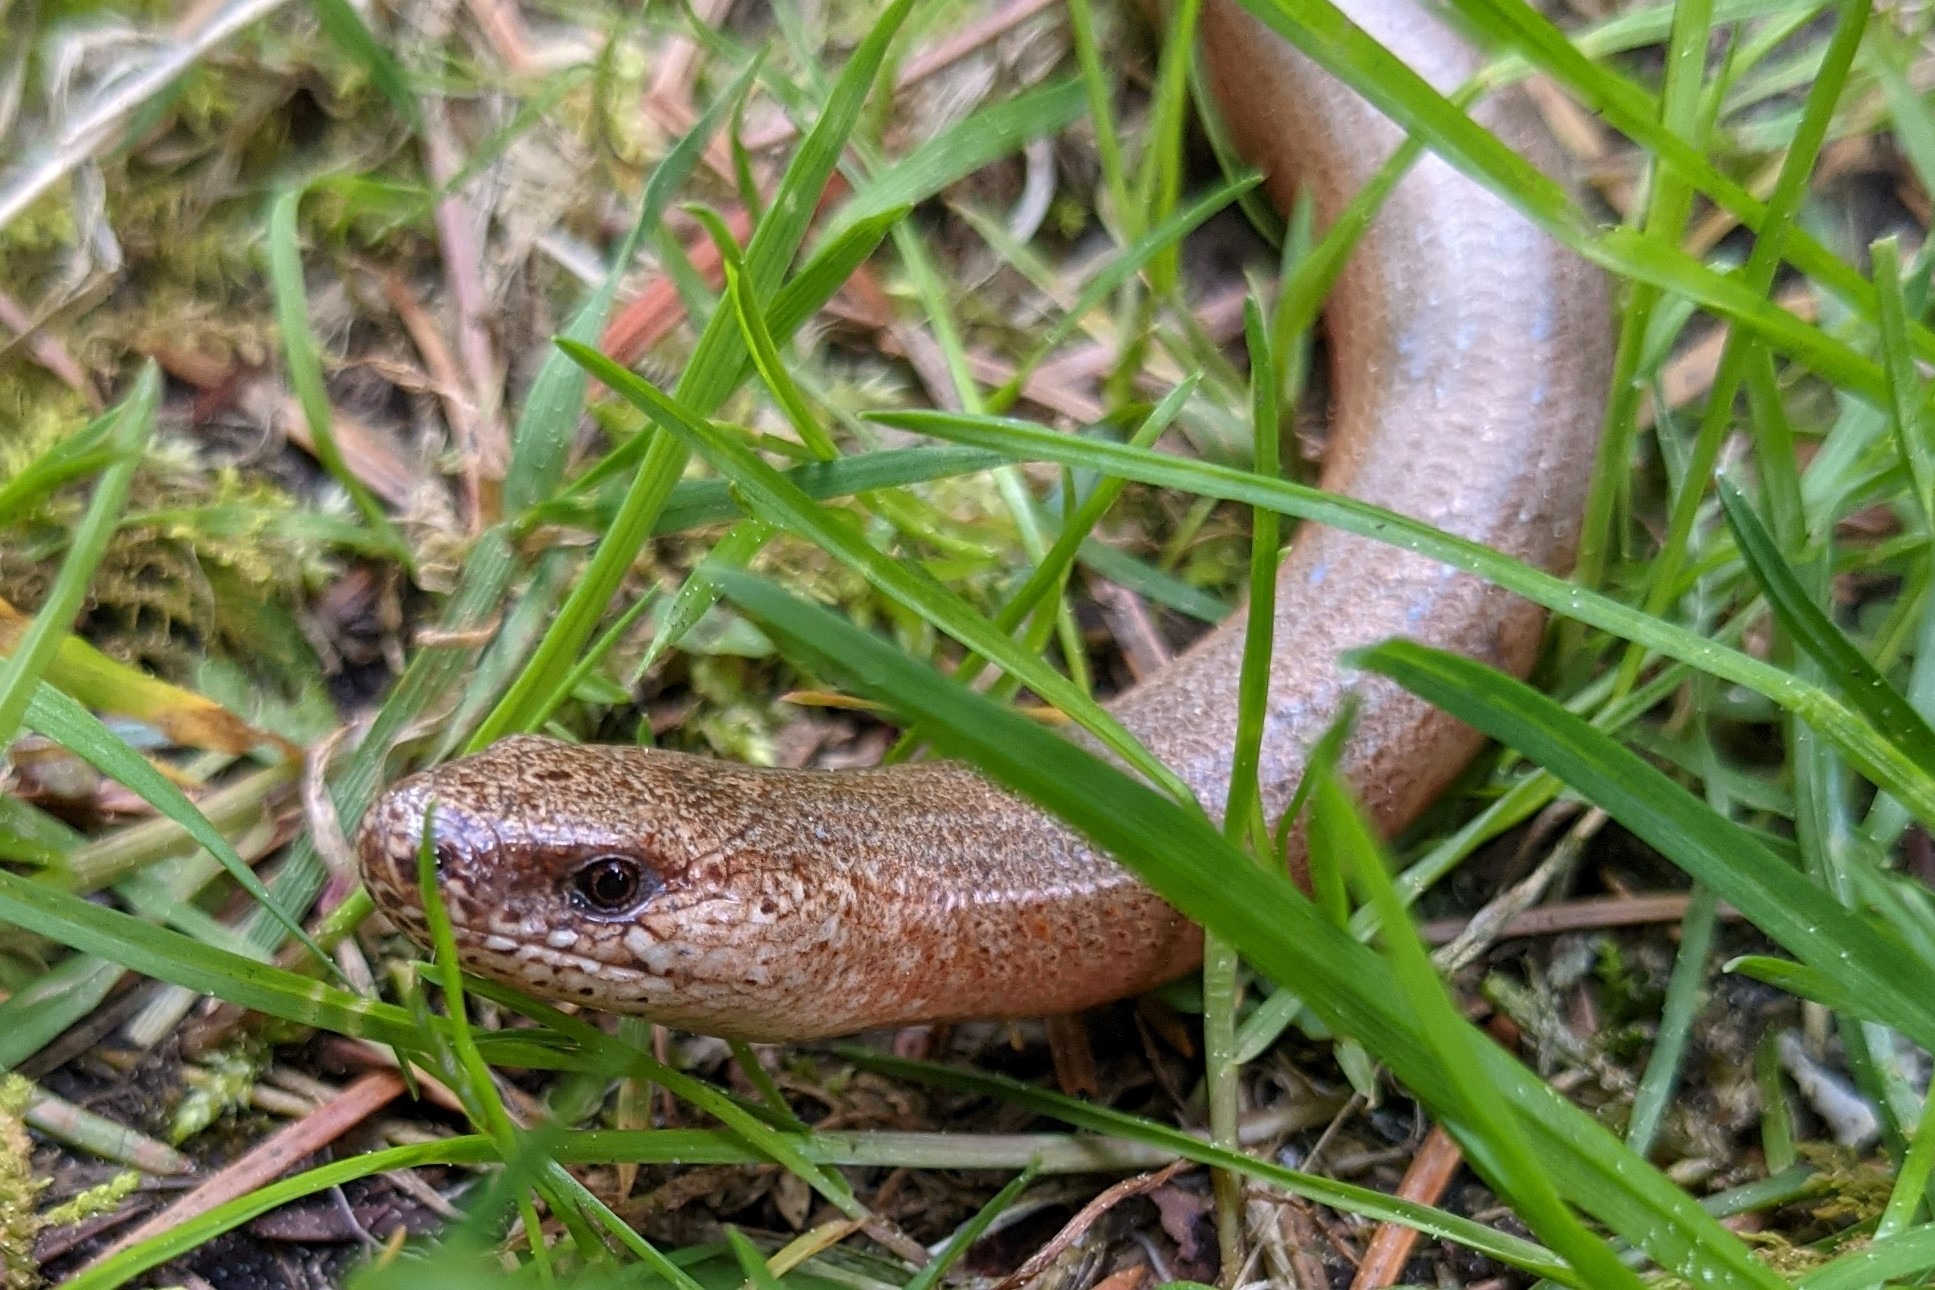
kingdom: Animalia
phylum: Chordata
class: Squamata
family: Anguidae
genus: Anguis
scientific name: Anguis fragilis
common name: Stålorm
